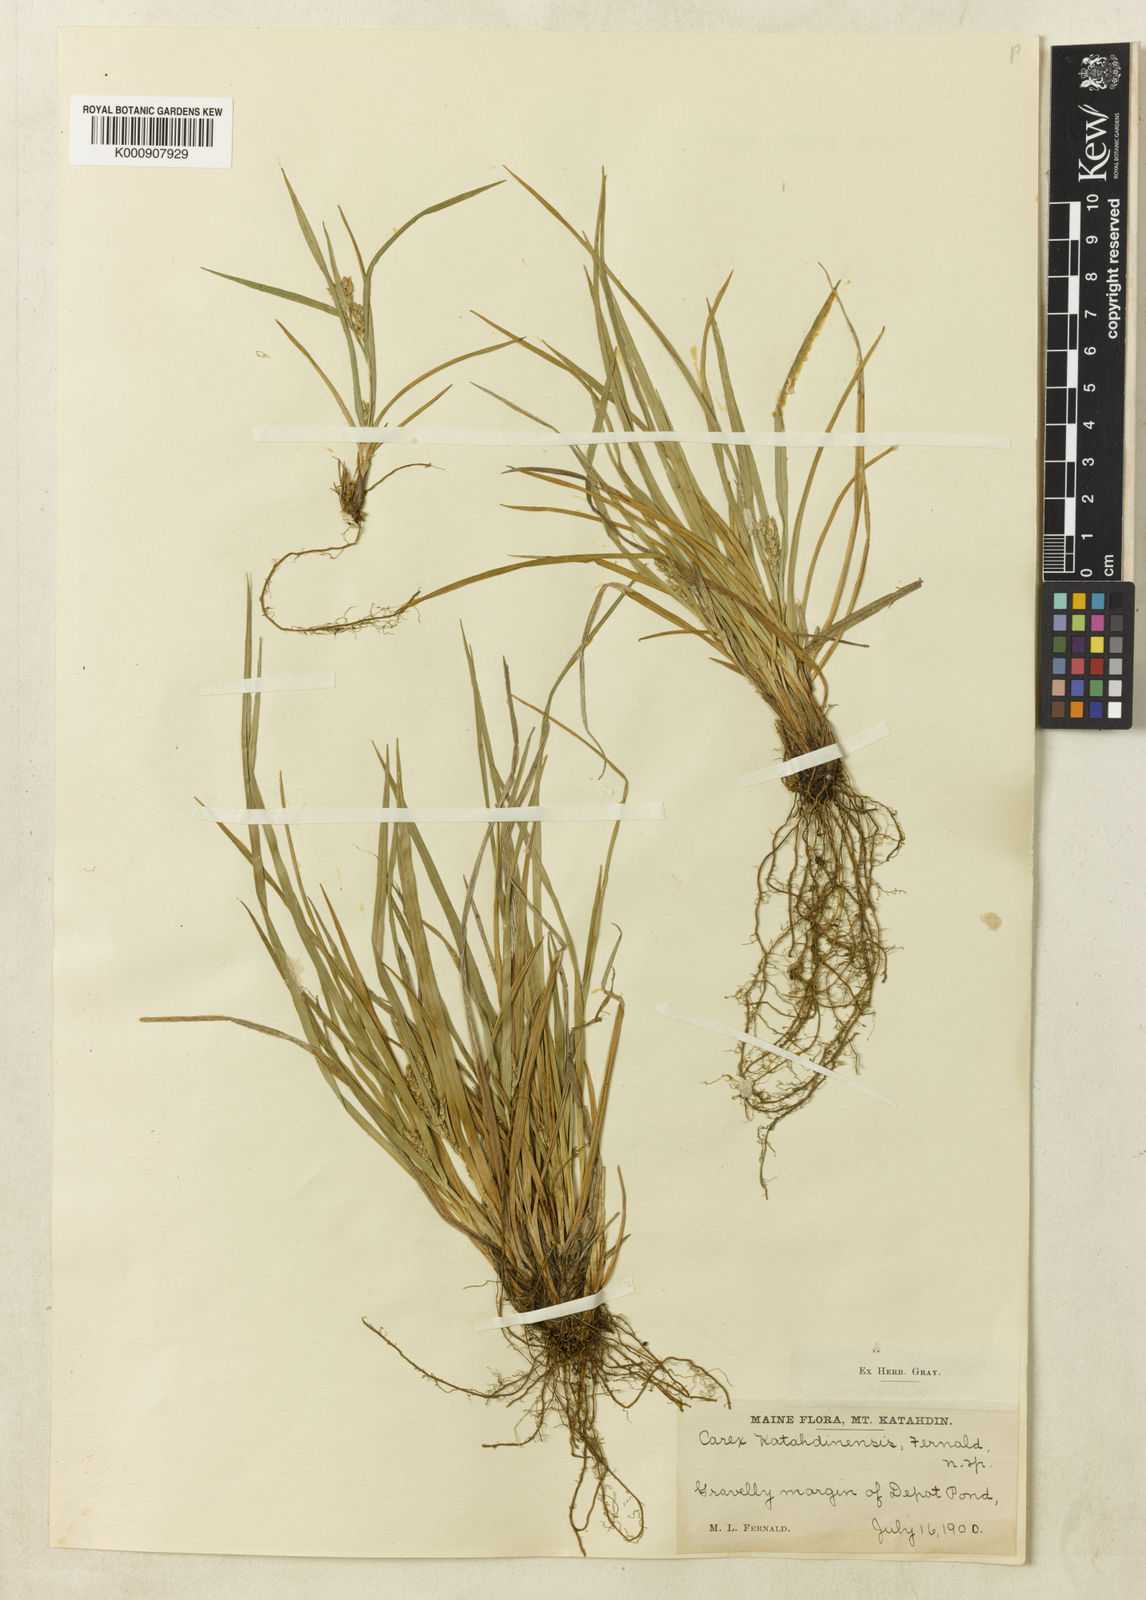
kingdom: Plantae
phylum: Tracheophyta
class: Liliopsida
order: Poales
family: Cyperaceae
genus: Carex
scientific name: Carex conoidea
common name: Cone shaped sedge
